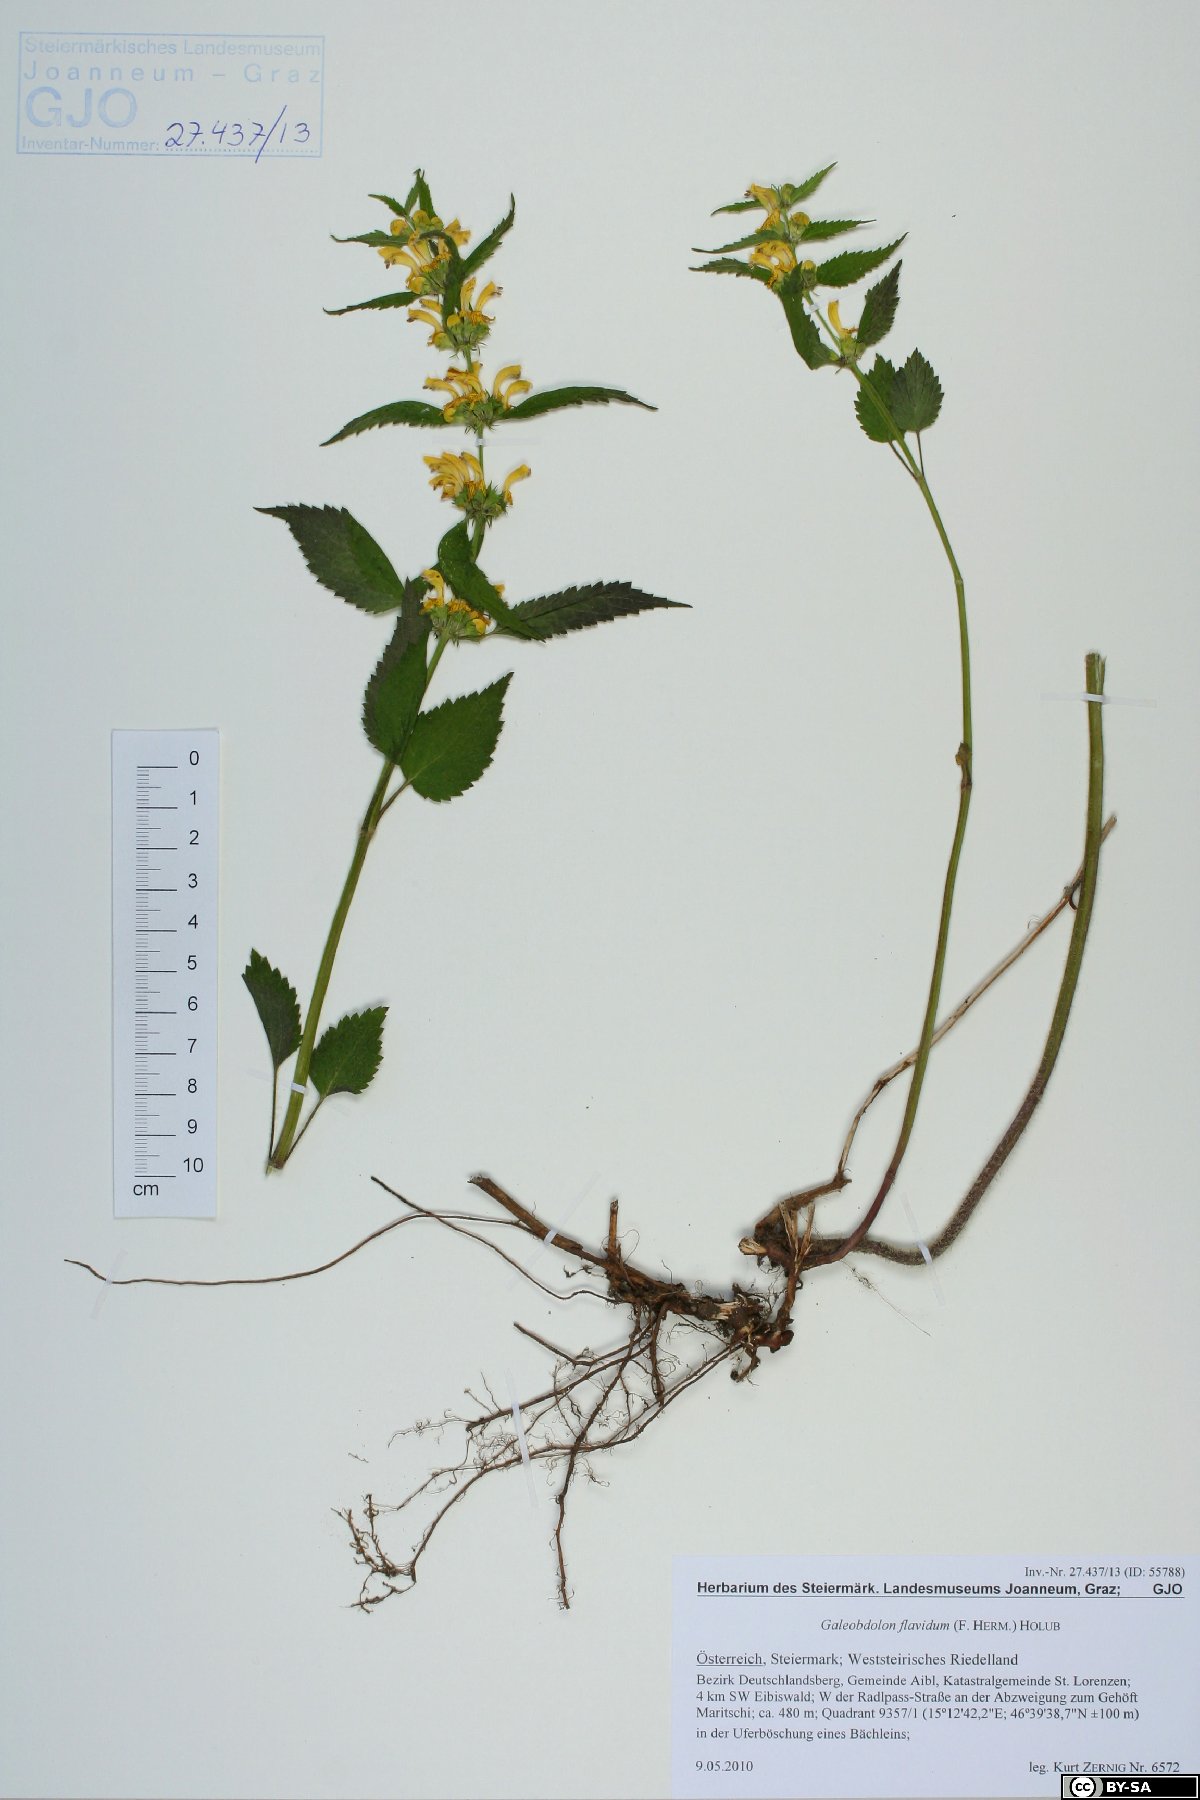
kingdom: Plantae
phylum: Tracheophyta
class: Magnoliopsida
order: Lamiales
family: Lamiaceae
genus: Lamium
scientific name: Lamium galeobdolon
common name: Yellow archangel
